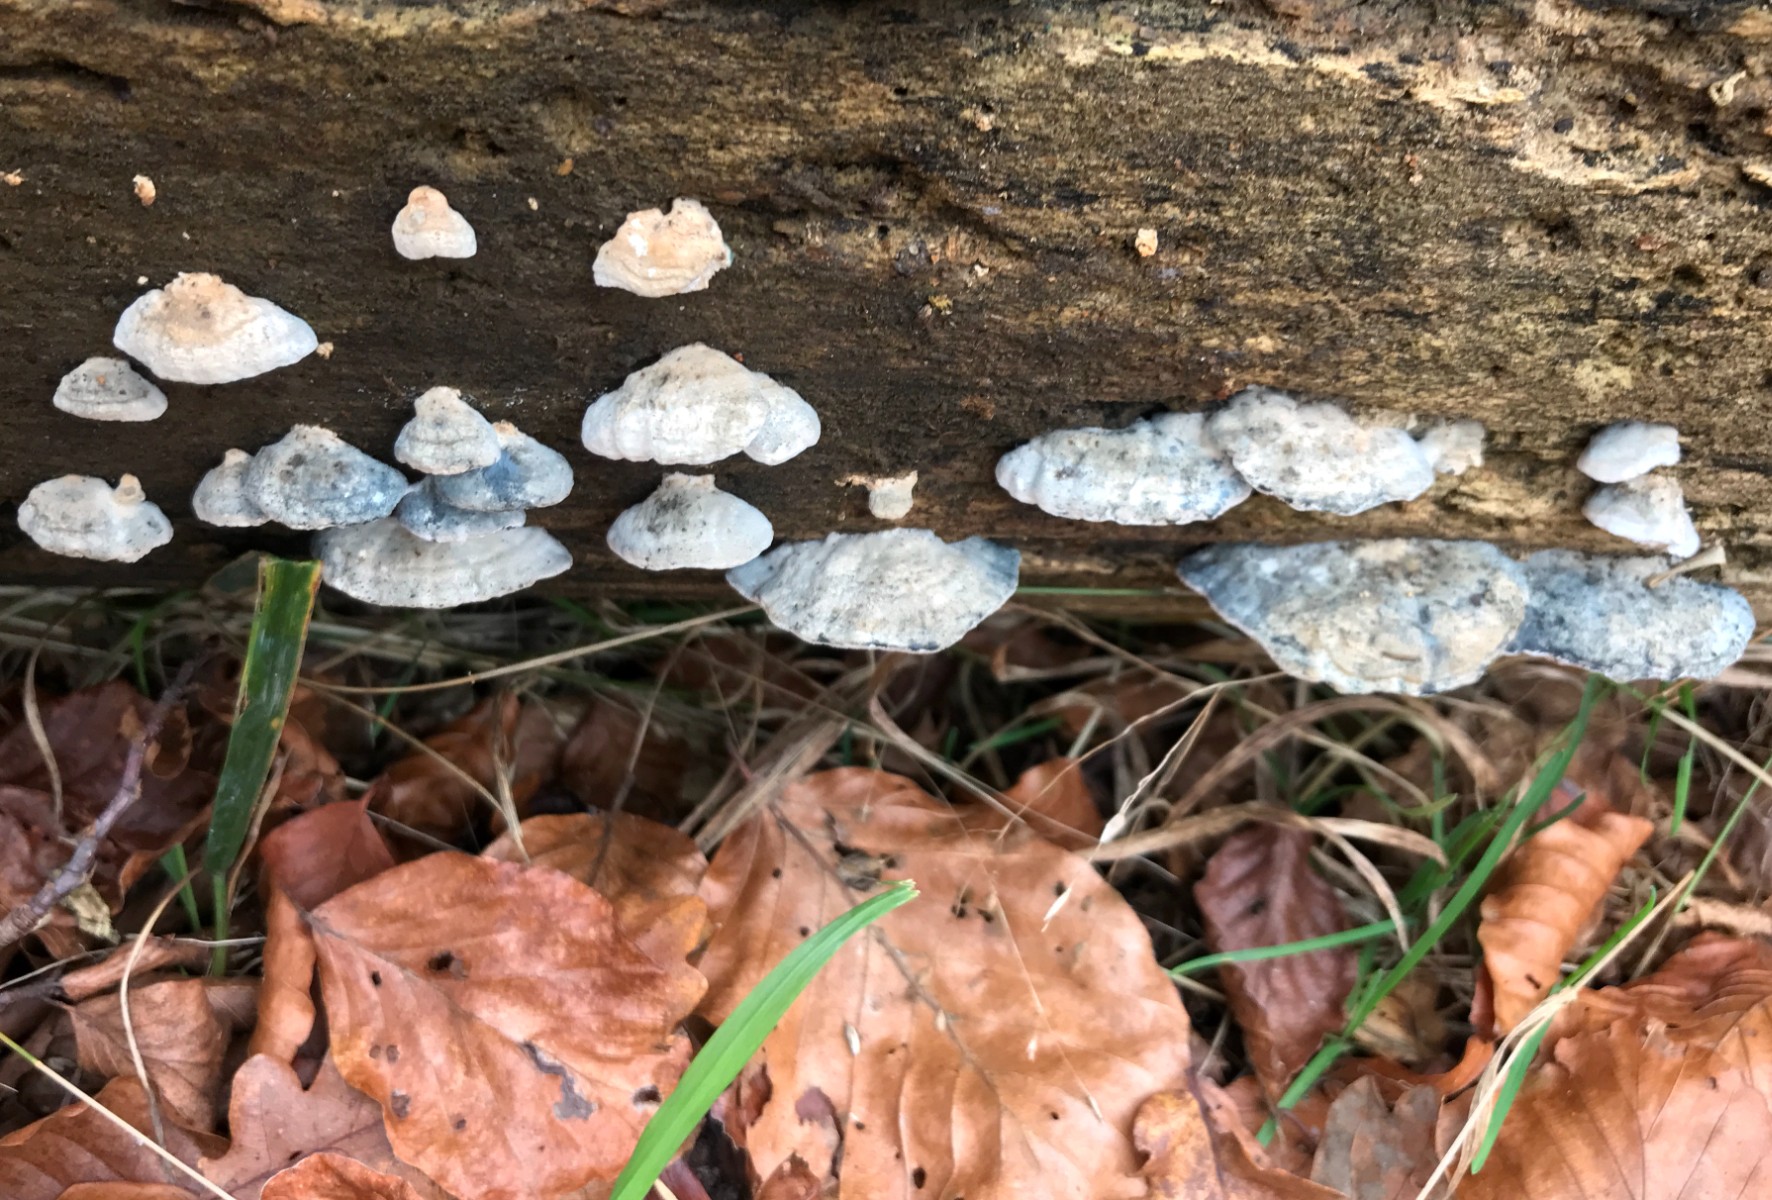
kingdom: Fungi
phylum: Basidiomycota
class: Agaricomycetes
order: Polyporales
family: Polyporaceae
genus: Cyanosporus
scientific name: Cyanosporus caesius
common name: blålig kødporesvamp
